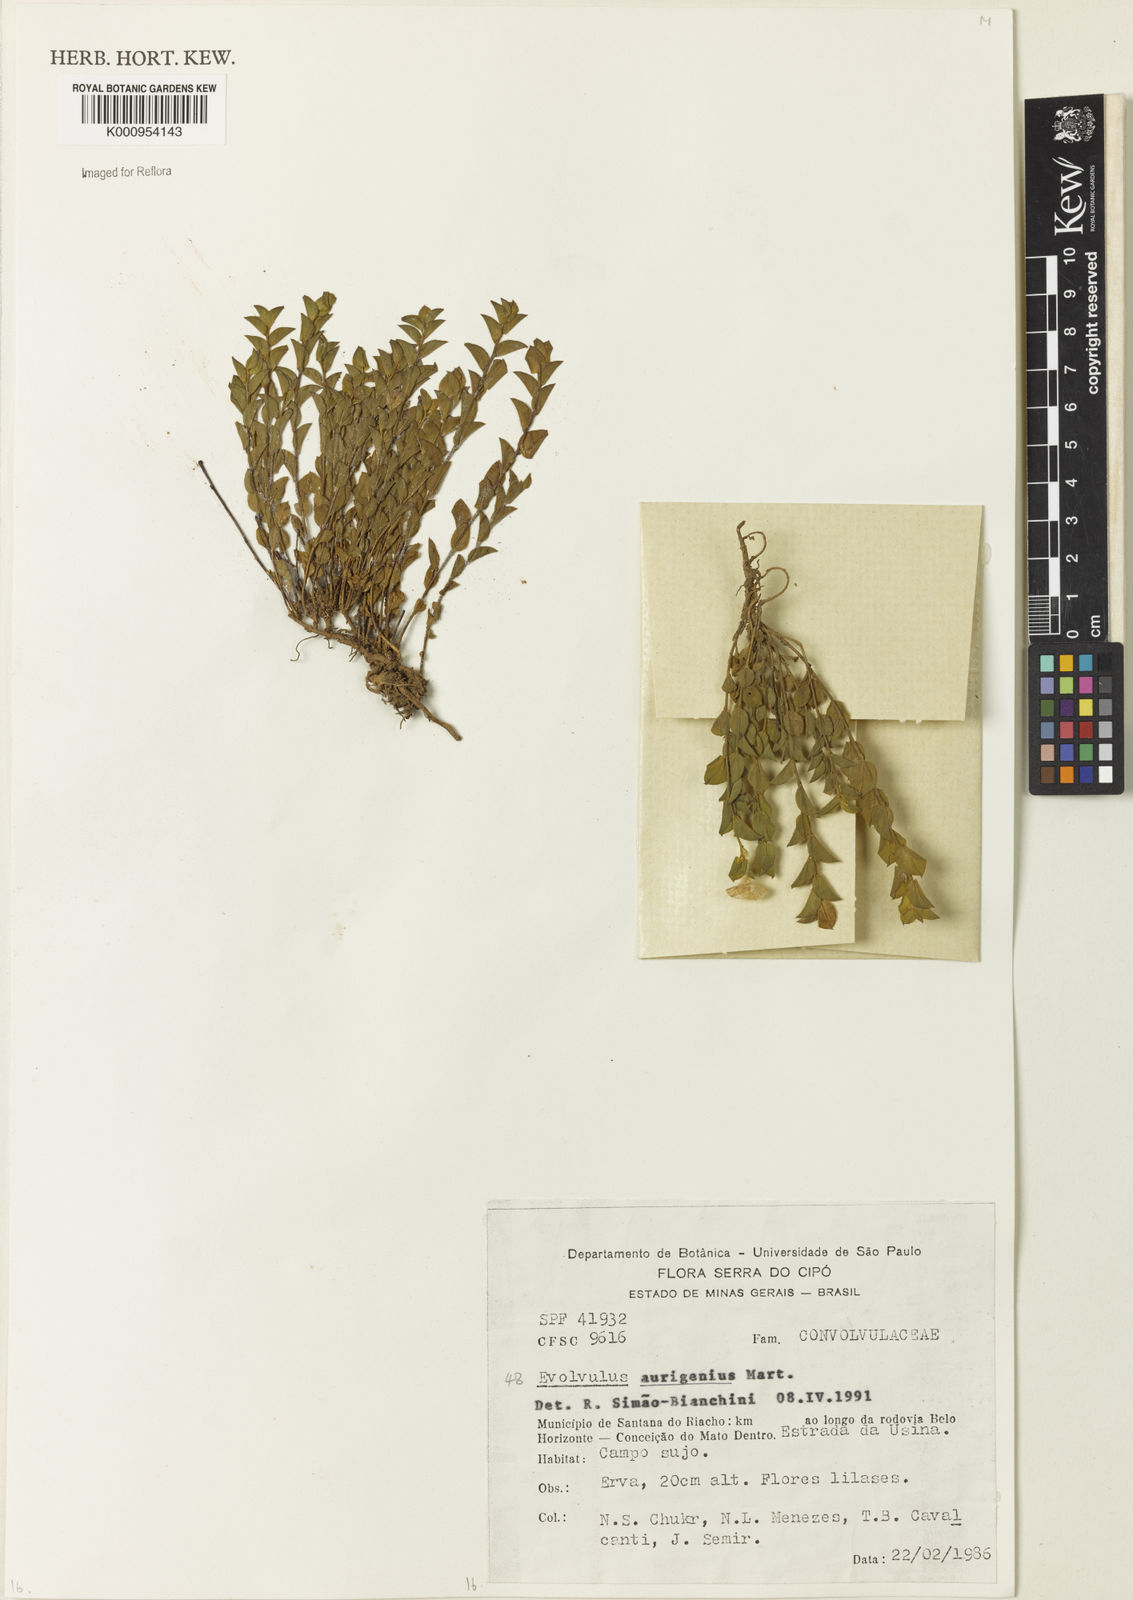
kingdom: Plantae
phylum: Tracheophyta
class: Magnoliopsida
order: Solanales
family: Convolvulaceae
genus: Evolvulus
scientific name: Evolvulus aurigenius
